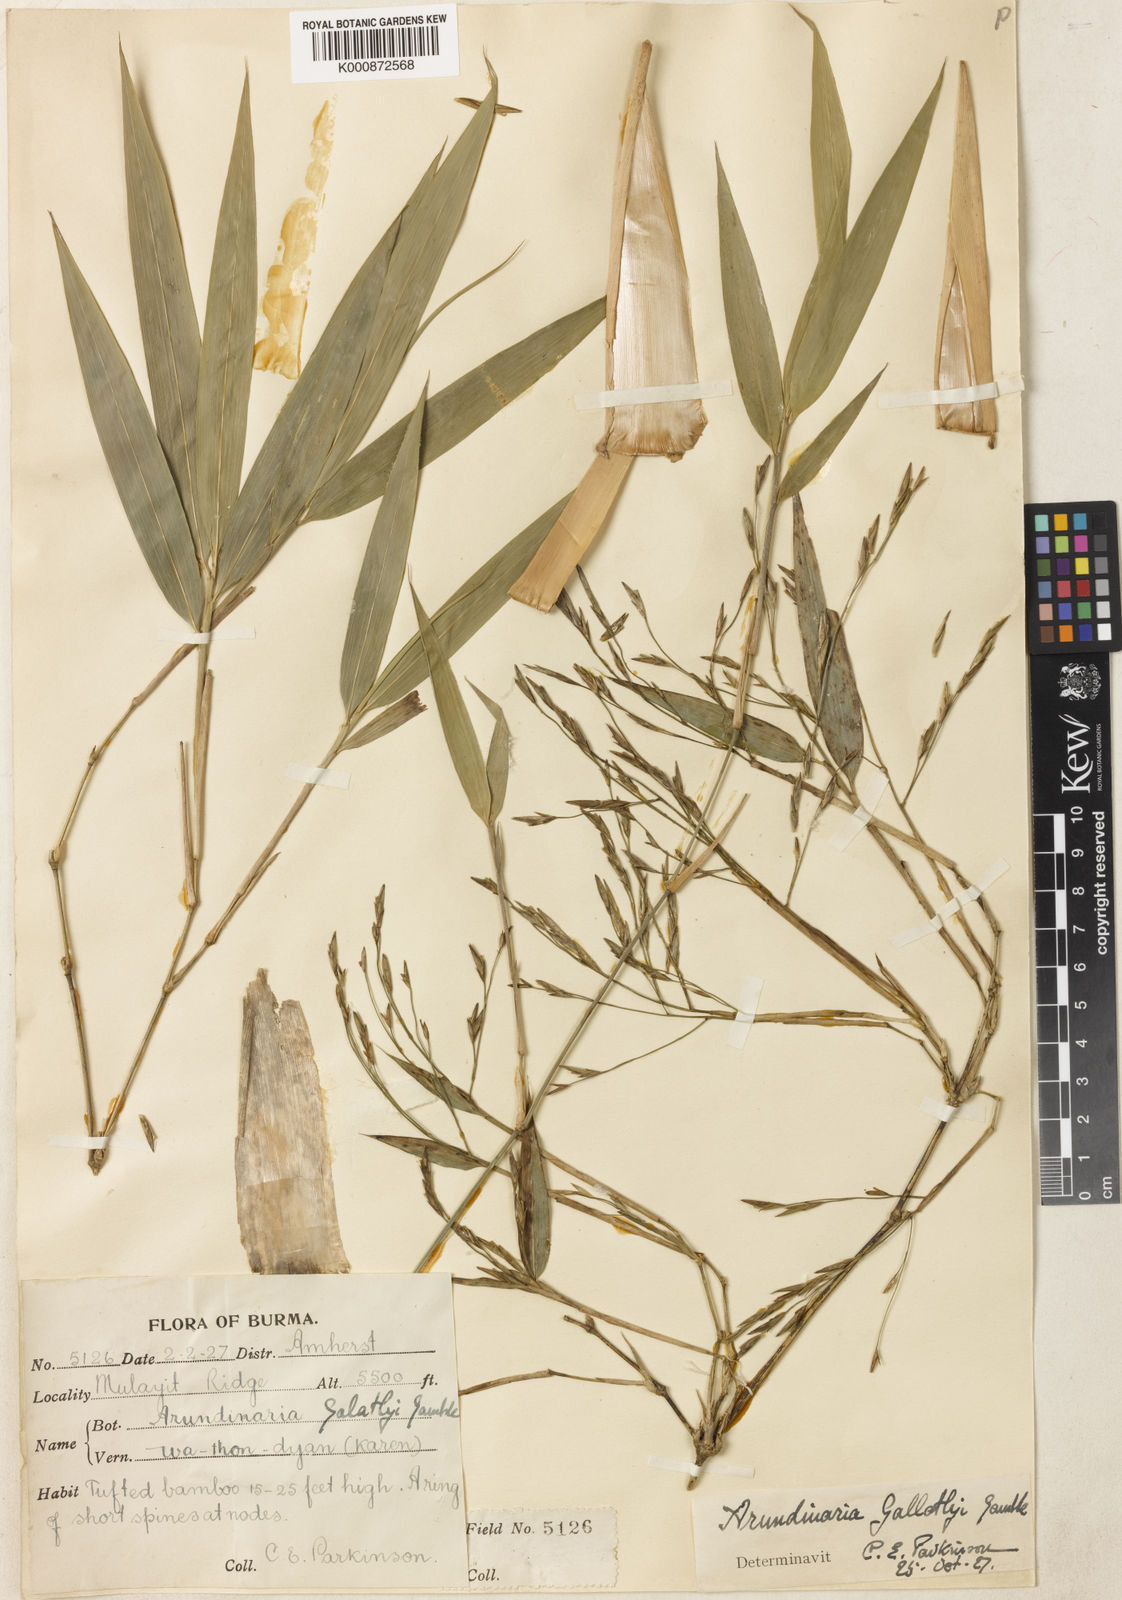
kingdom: Plantae
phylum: Tracheophyta
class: Liliopsida
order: Poales
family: Poaceae
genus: Chimonocalamus
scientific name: Chimonocalamus gallatlyi
